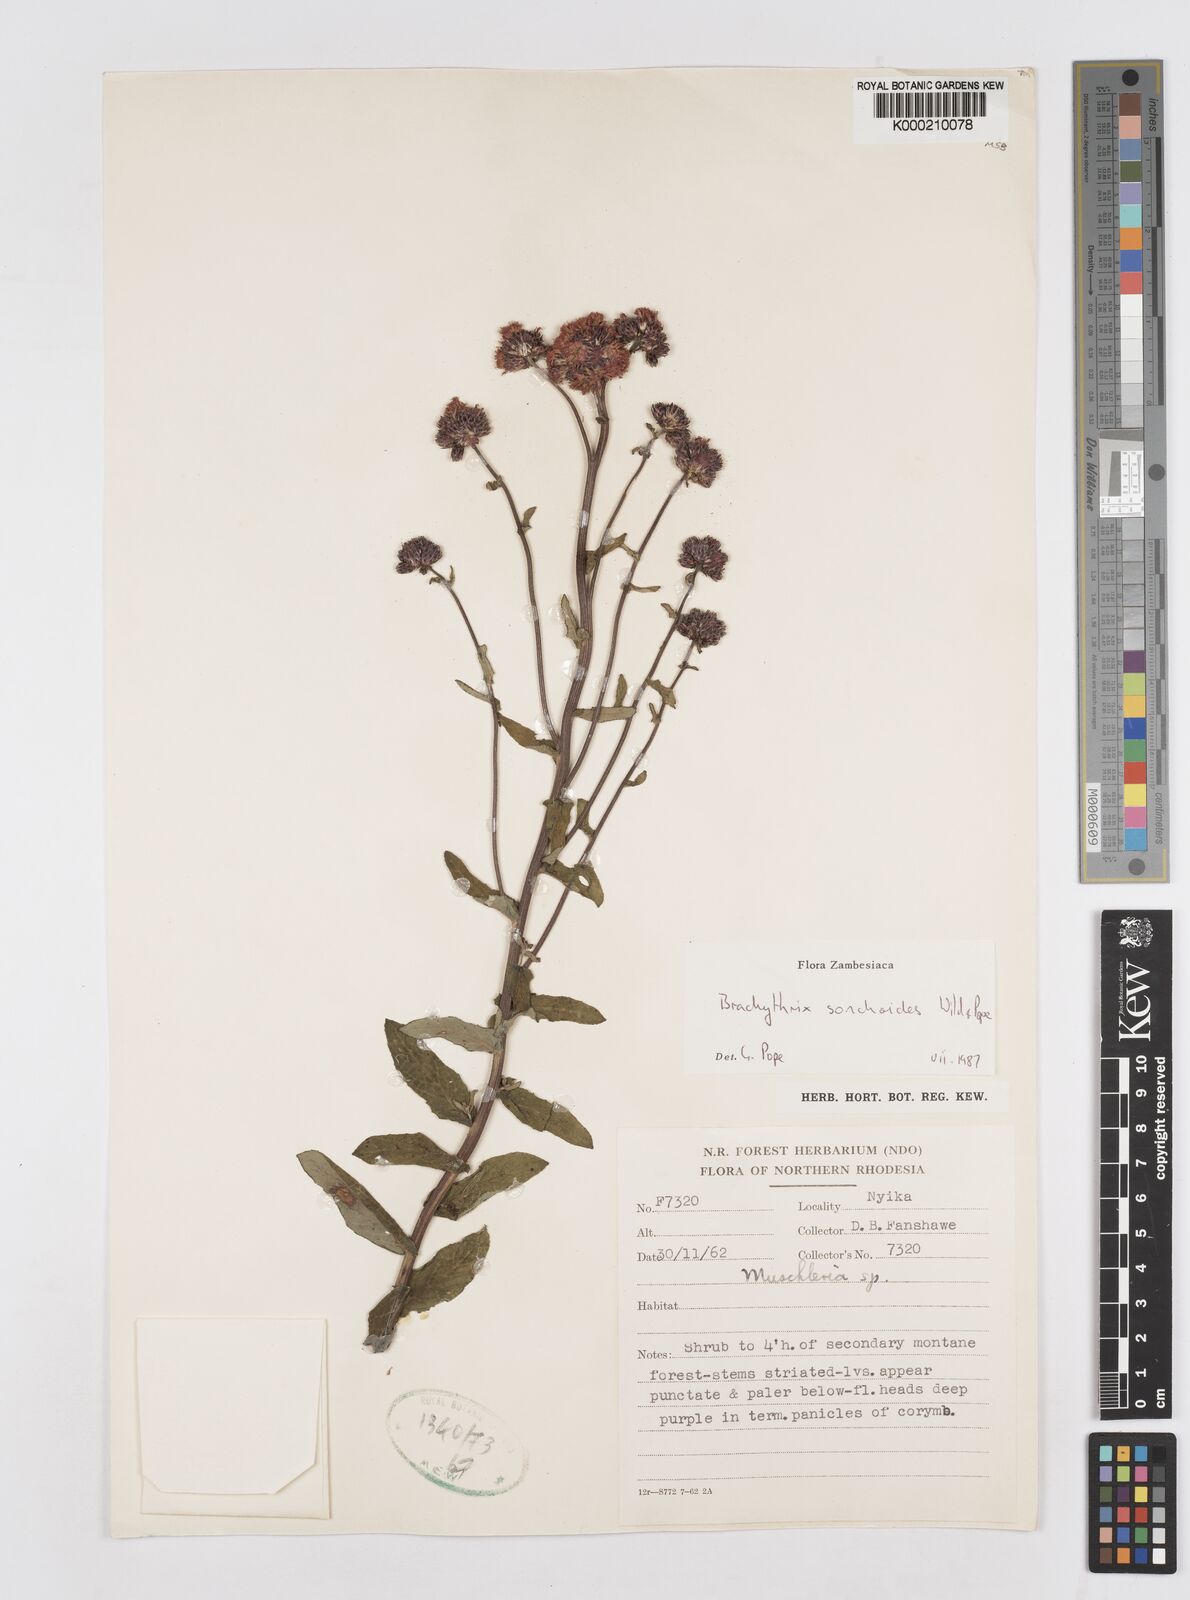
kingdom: Plantae
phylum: Tracheophyta
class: Magnoliopsida
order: Asterales
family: Asteraceae
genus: Brachythrix
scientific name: Brachythrix sonchoides
